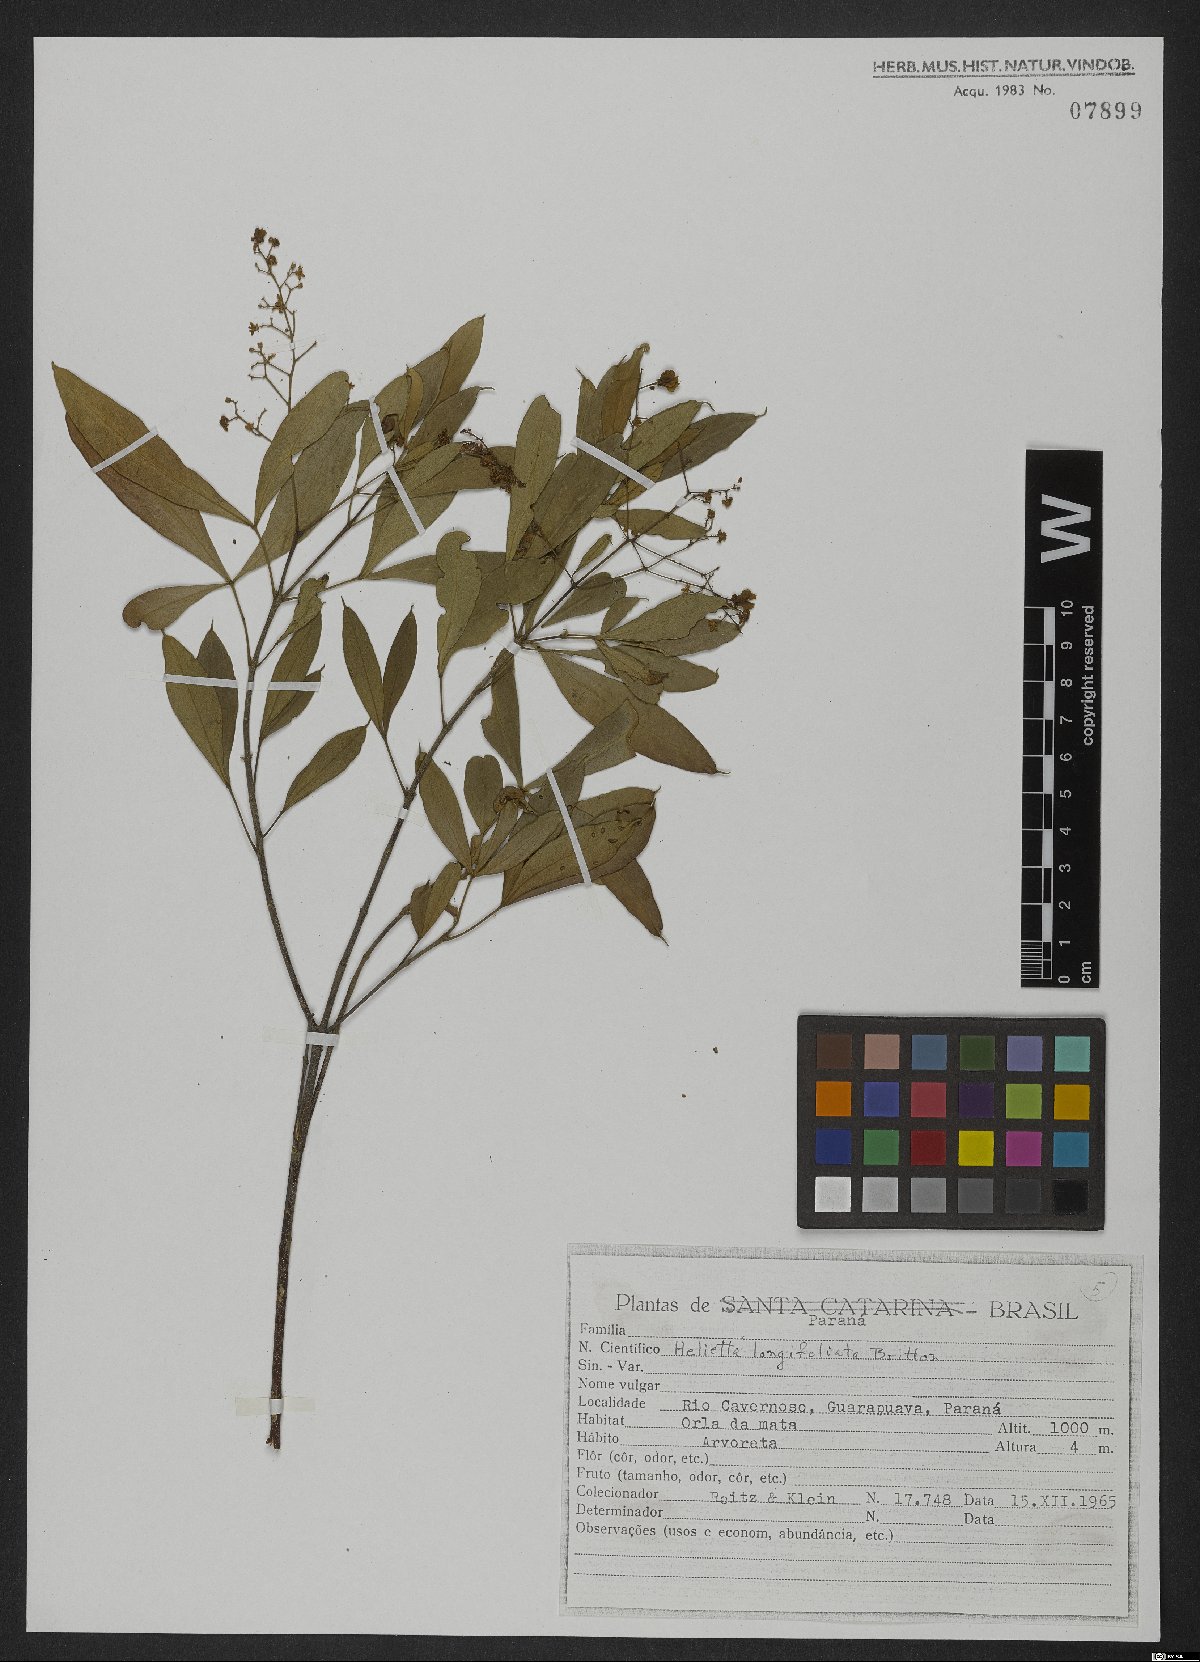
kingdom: Plantae
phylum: Tracheophyta
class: Magnoliopsida
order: Sapindales
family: Rutaceae
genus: Helietta
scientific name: Helietta apiculata
